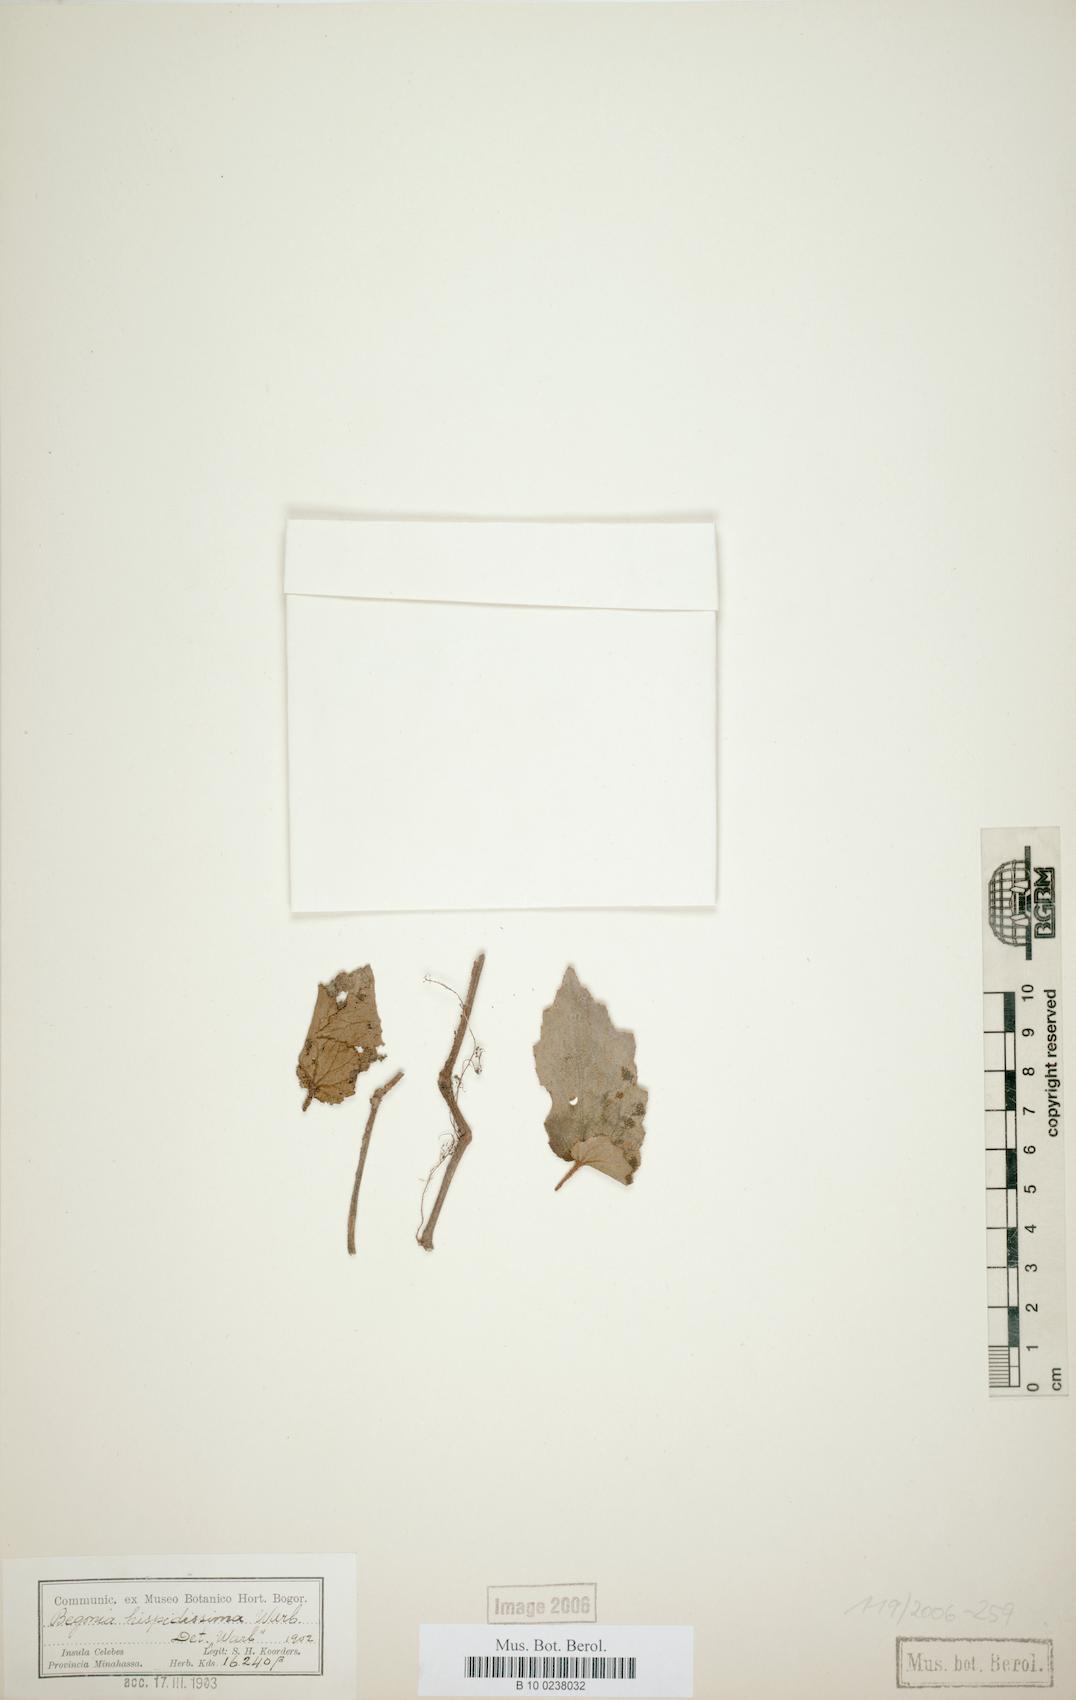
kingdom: Plantae
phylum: Tracheophyta
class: Magnoliopsida
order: Cucurbitales
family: Begoniaceae
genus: Begonia
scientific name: Begonia hispidissima
